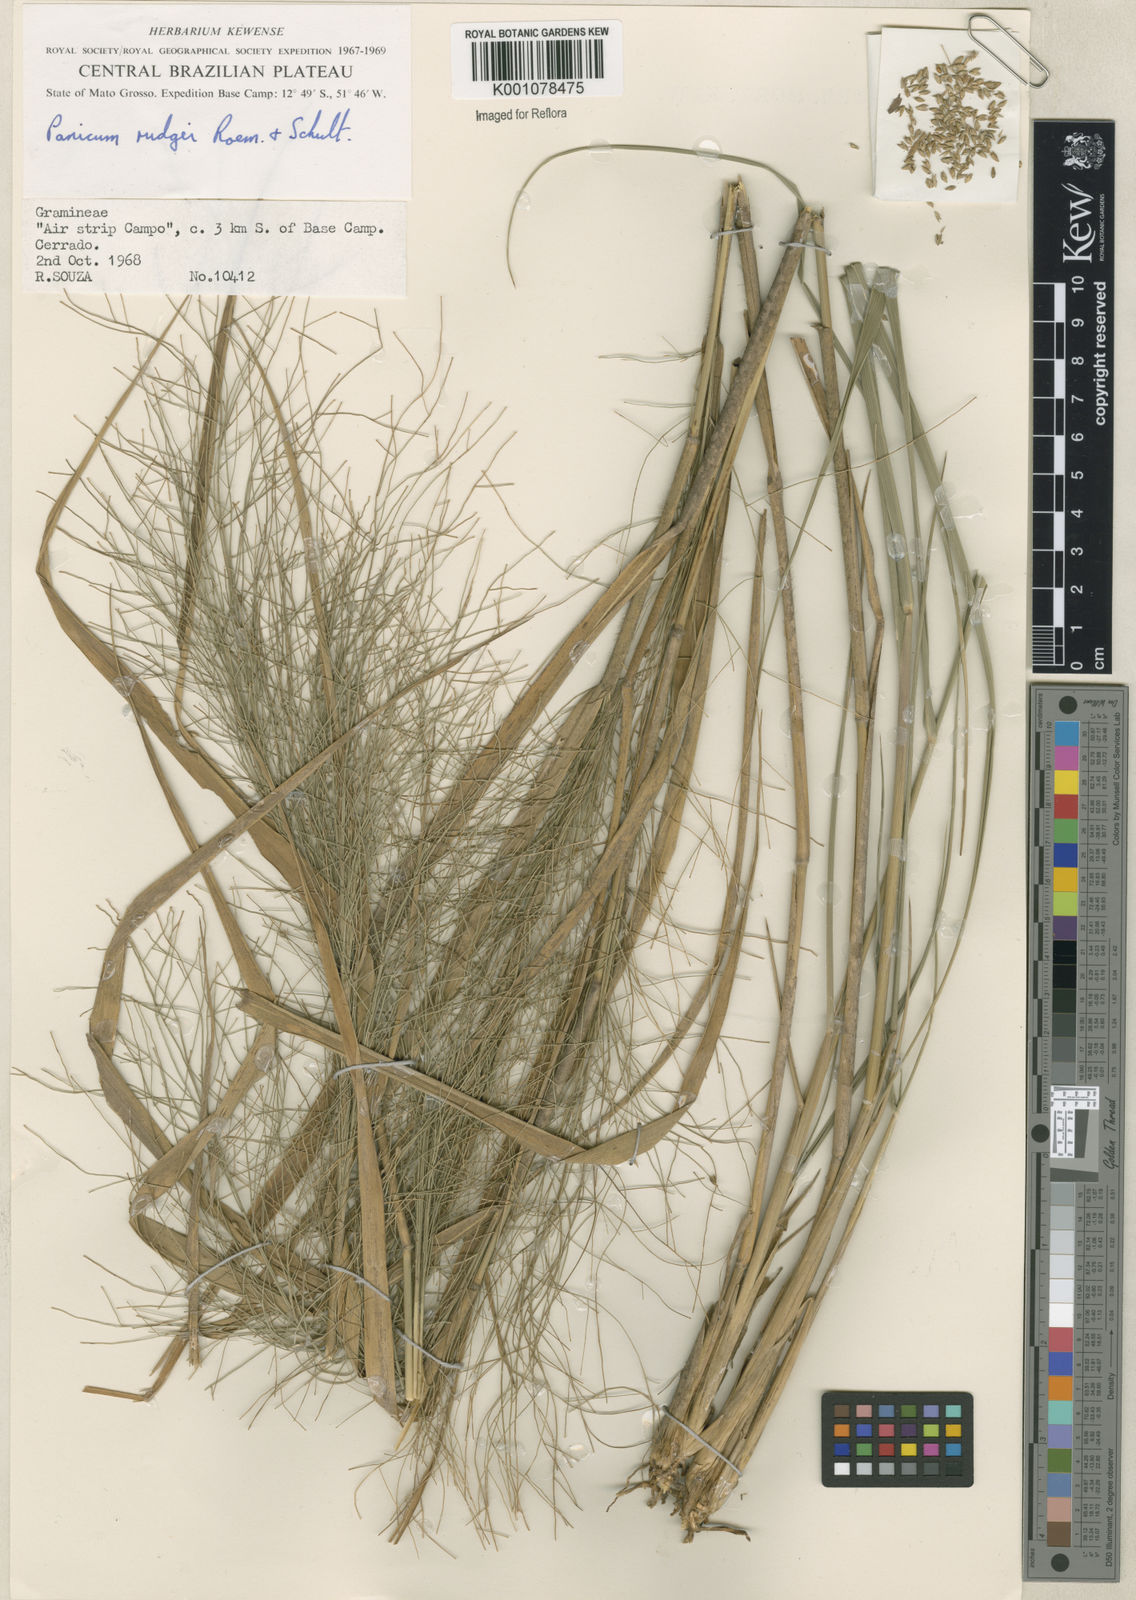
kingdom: Plantae
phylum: Tracheophyta
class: Liliopsida
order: Poales
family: Poaceae
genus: Panicum
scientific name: Panicum rudgei
